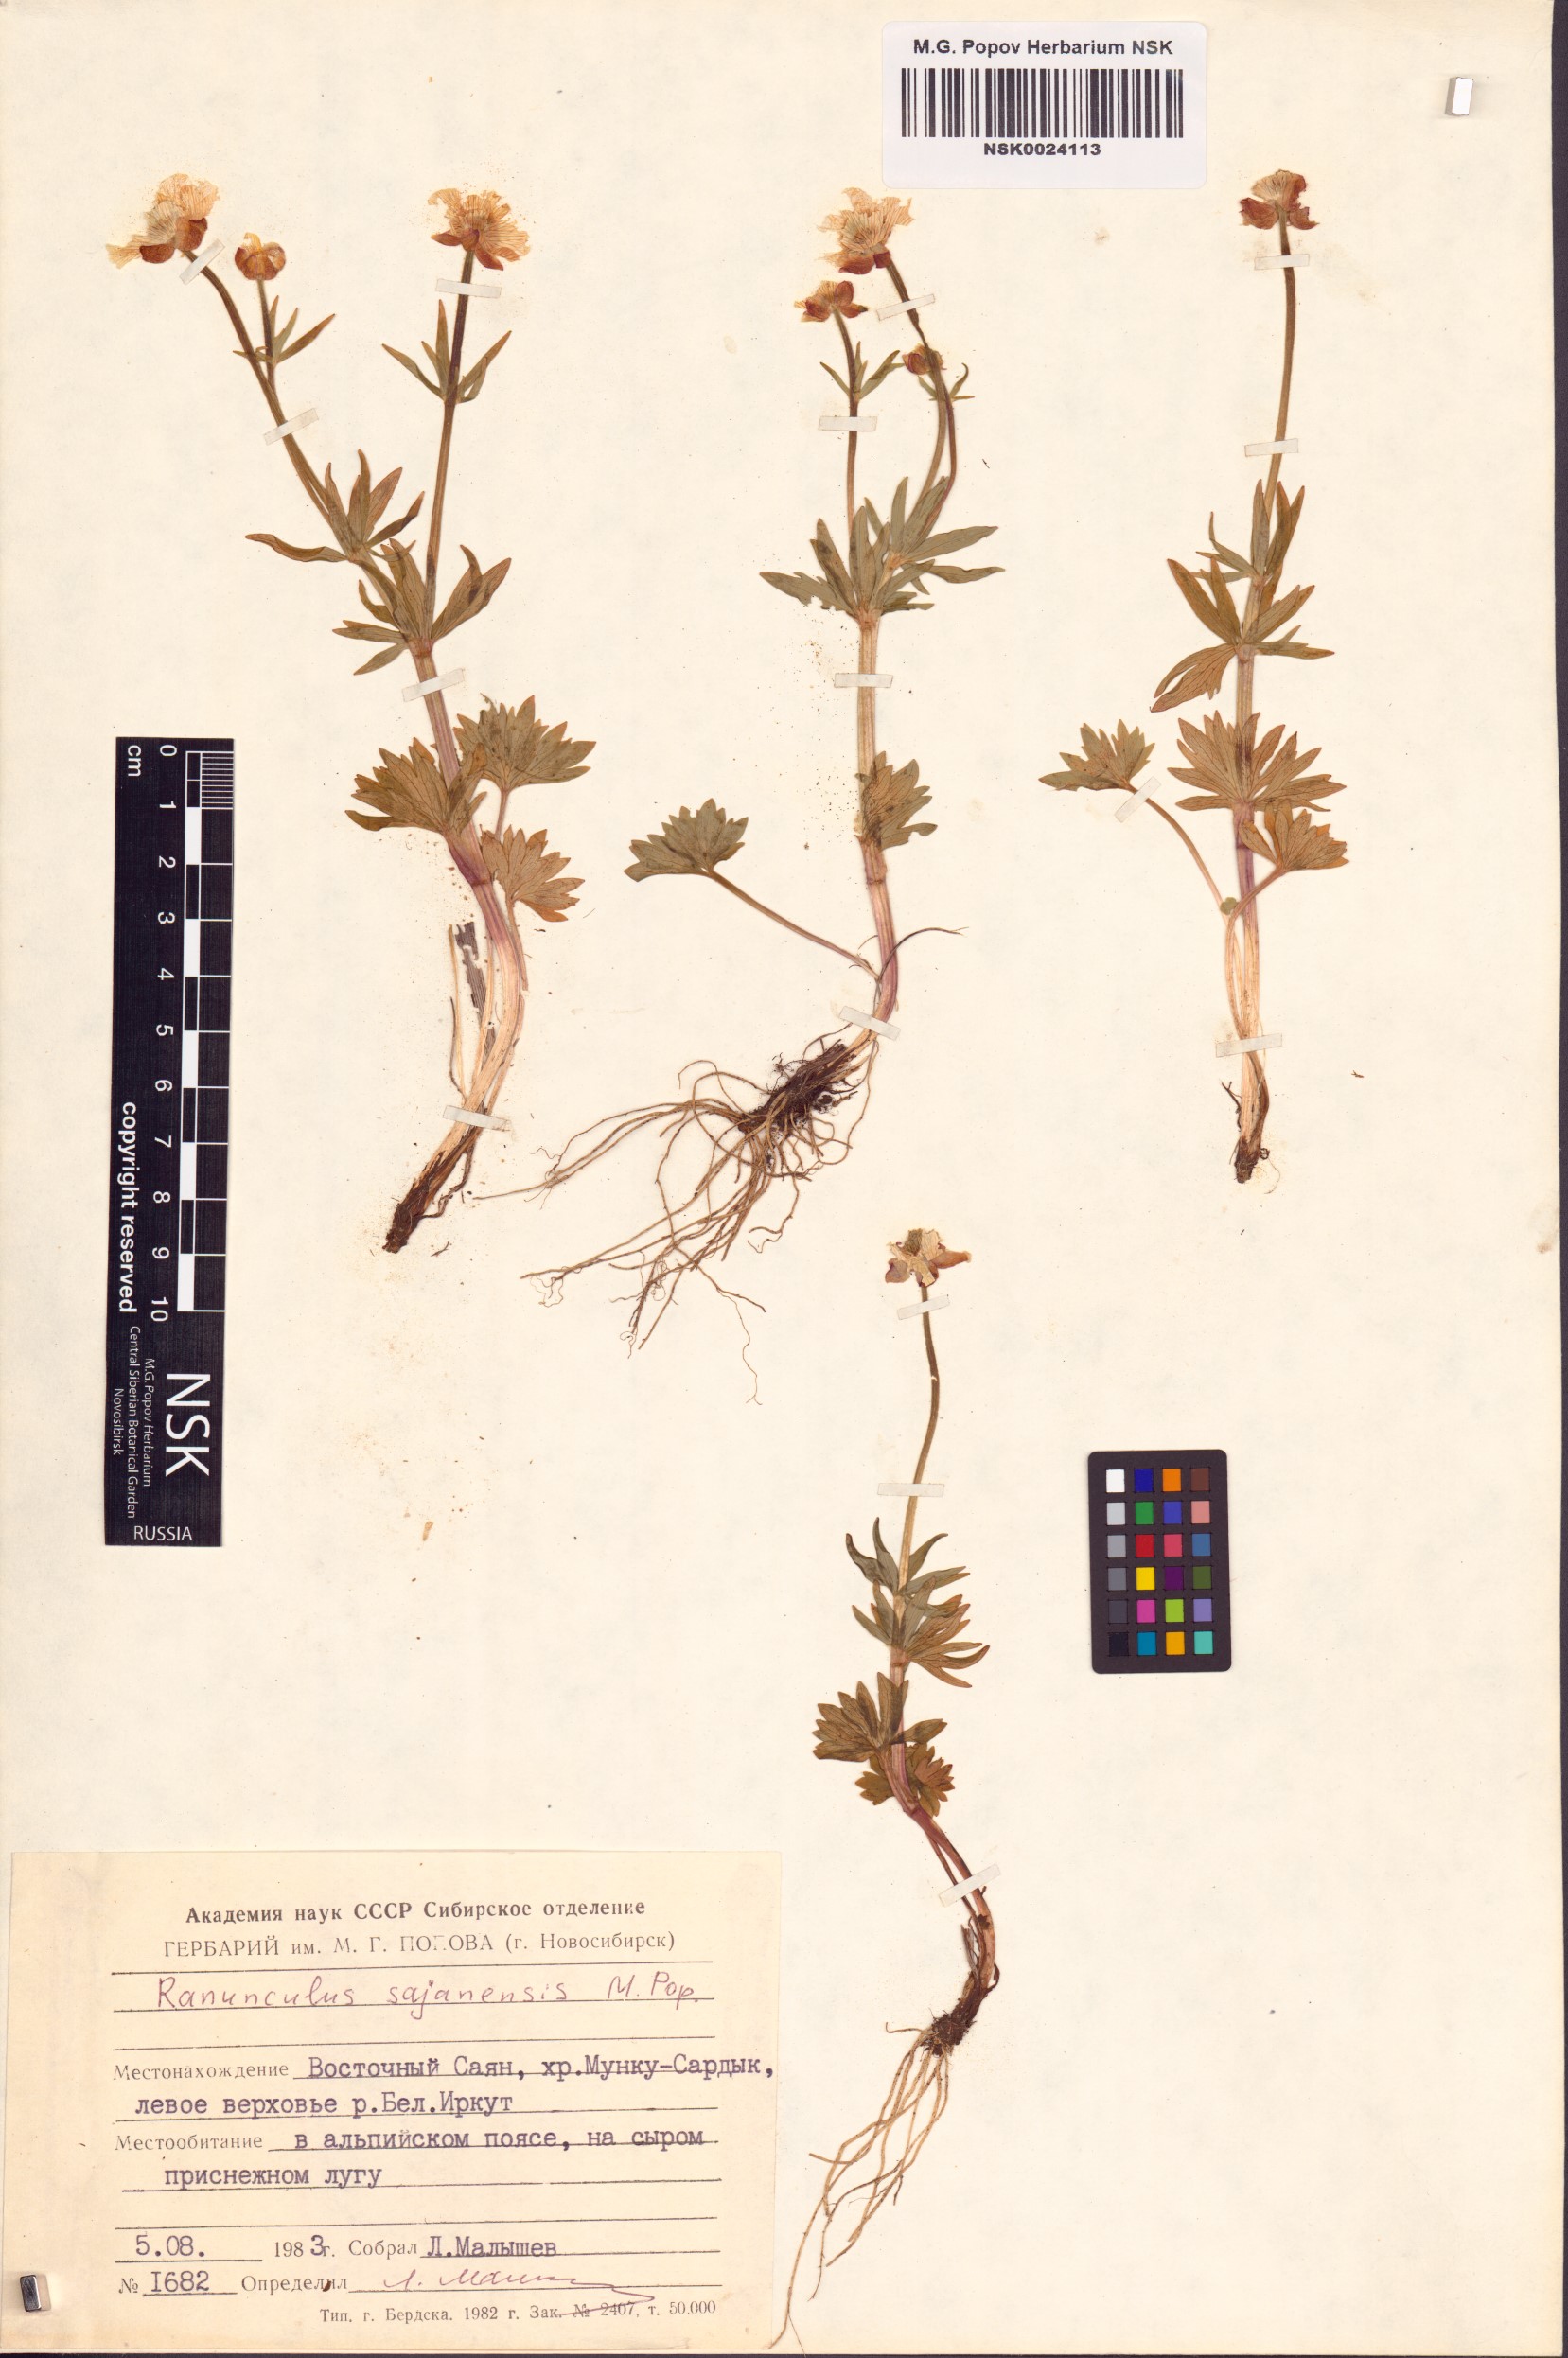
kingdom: Plantae
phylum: Tracheophyta
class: Magnoliopsida
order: Ranunculales
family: Ranunculaceae
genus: Ranunculus
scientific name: Ranunculus sajanensis
